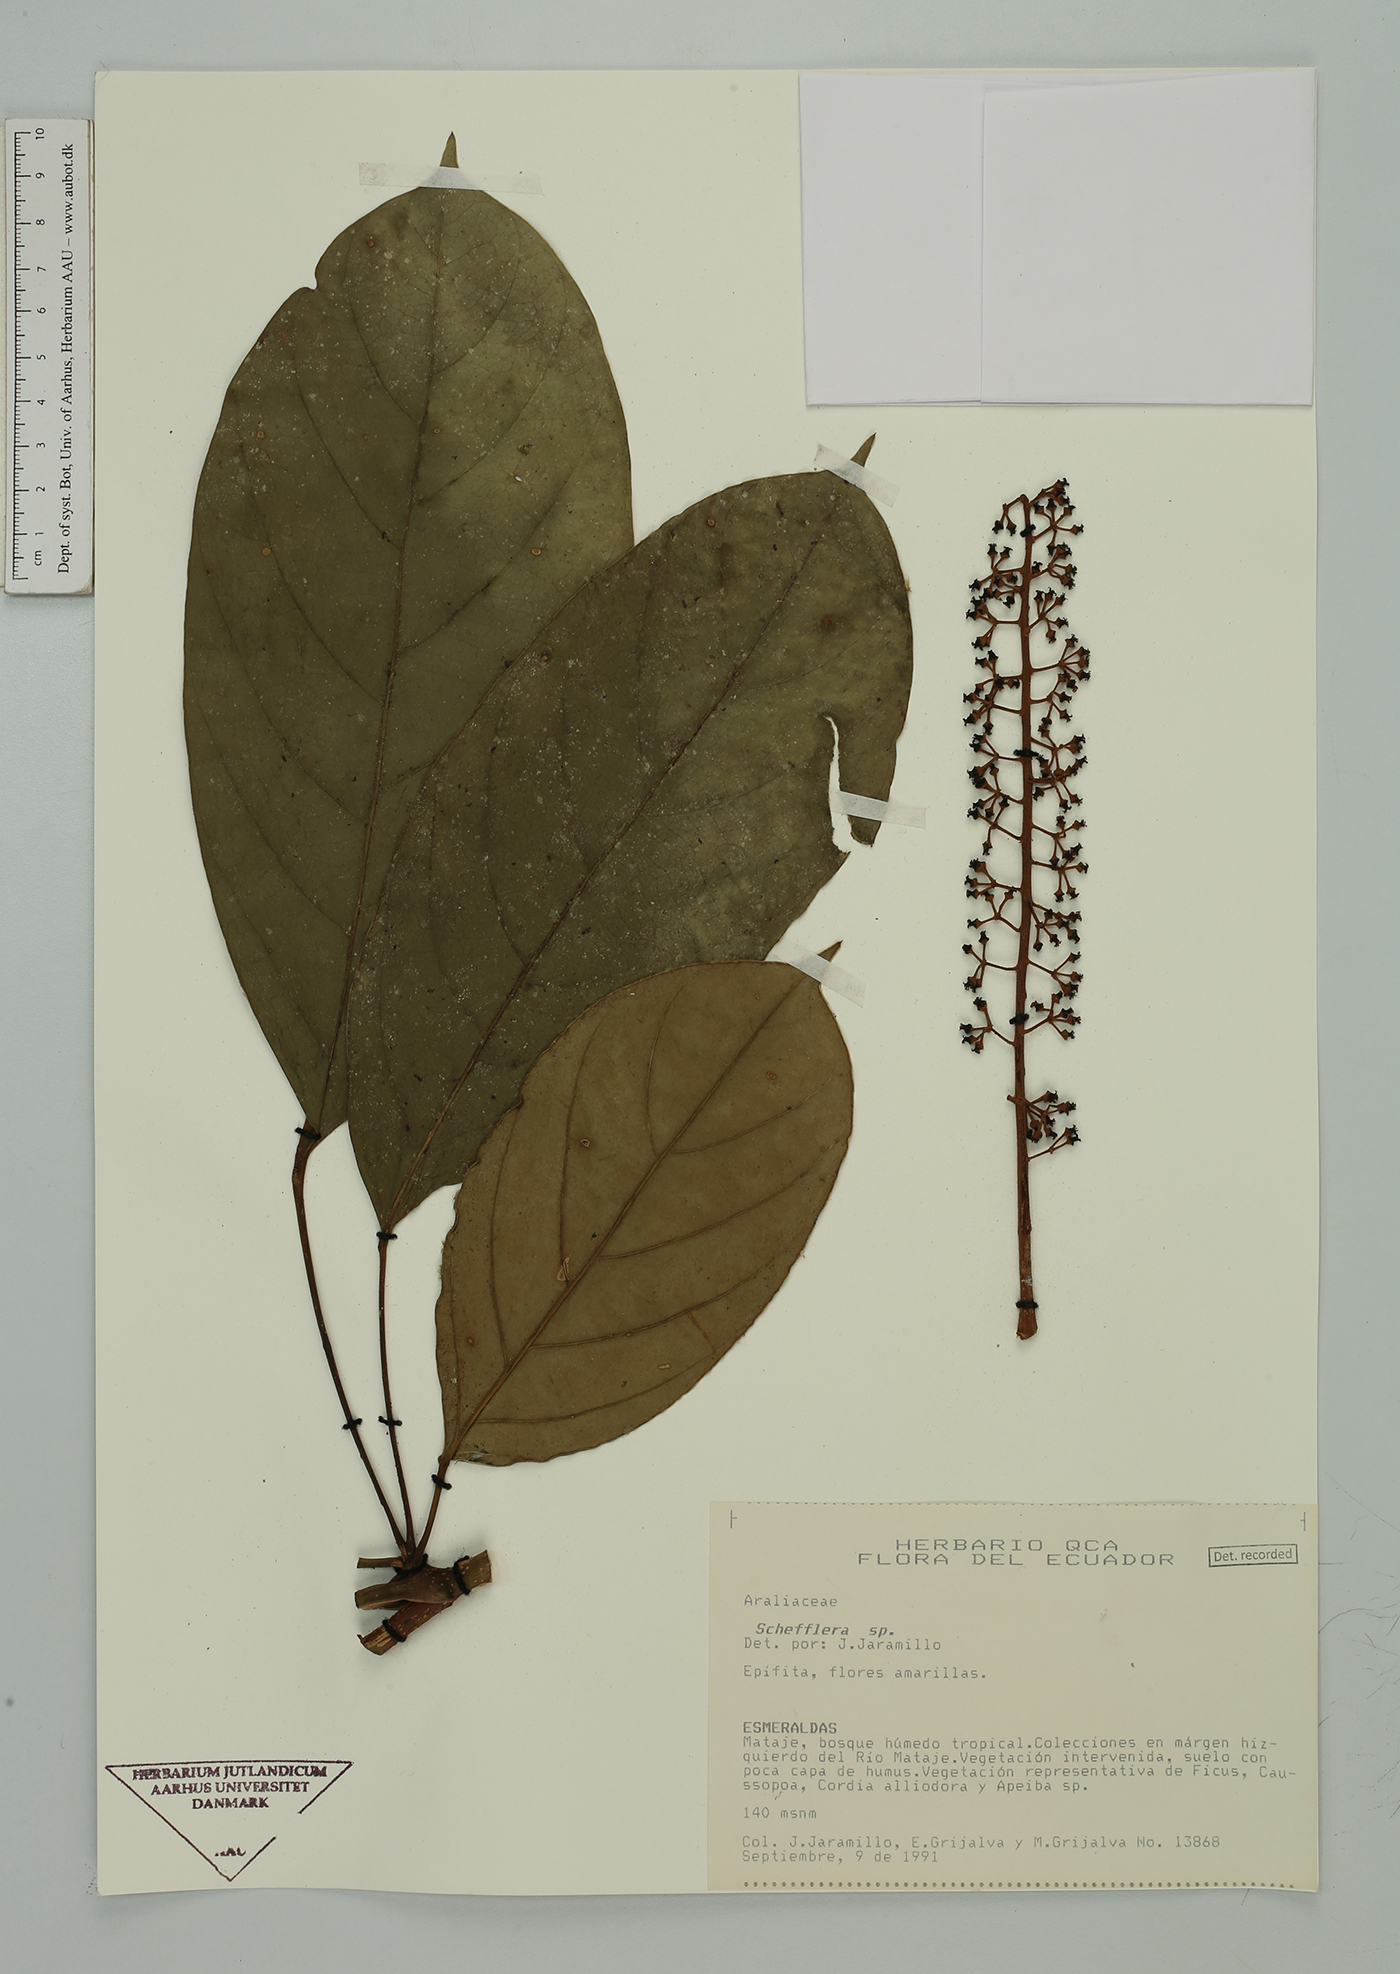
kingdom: Plantae
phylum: Tracheophyta
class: Magnoliopsida
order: Apiales
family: Araliaceae
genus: Sciodaphyllum
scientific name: Sciodaphyllum ternatum
